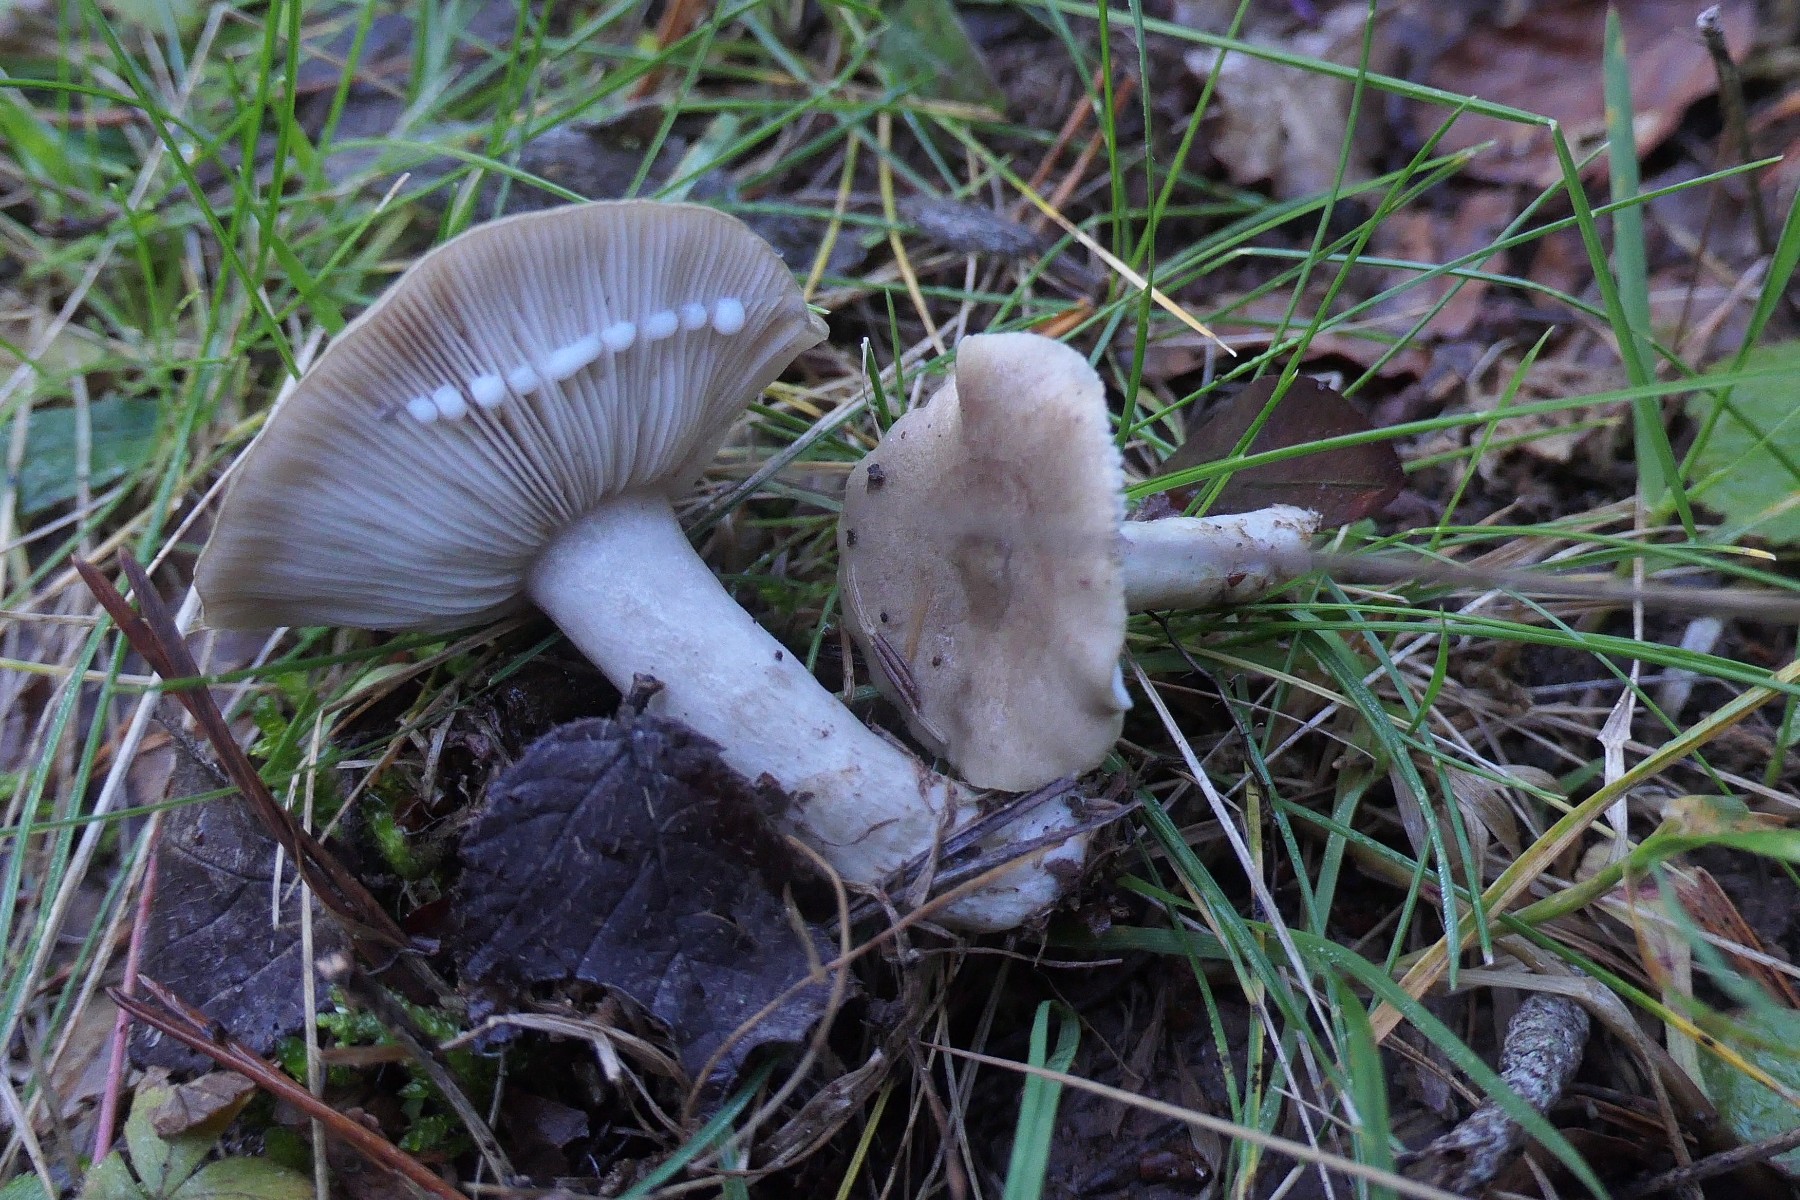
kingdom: Fungi
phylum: Basidiomycota
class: Agaricomycetes
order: Russulales
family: Russulaceae
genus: Lactarius
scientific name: Lactarius blennius
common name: dråbeplettet mælkehat
